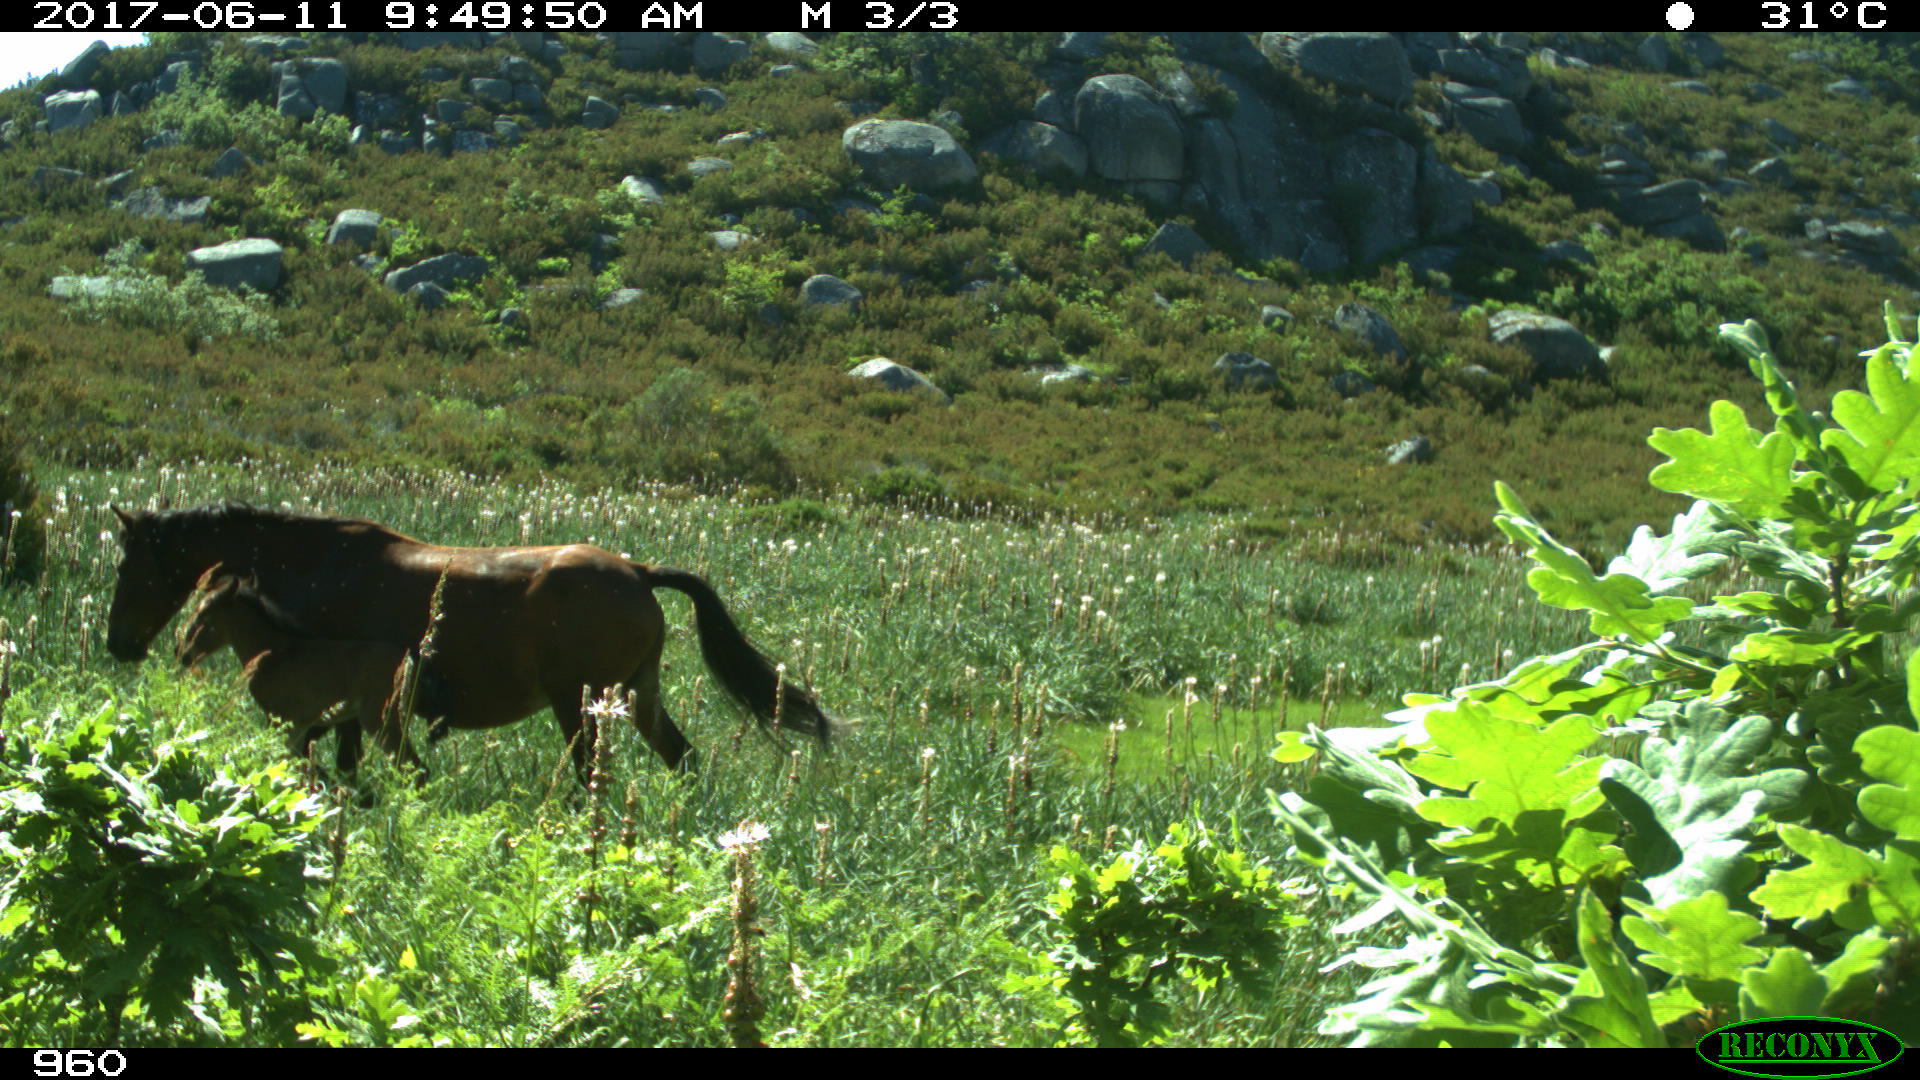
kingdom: Animalia
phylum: Chordata
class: Mammalia
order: Perissodactyla
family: Equidae
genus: Equus
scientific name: Equus caballus
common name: Horse
